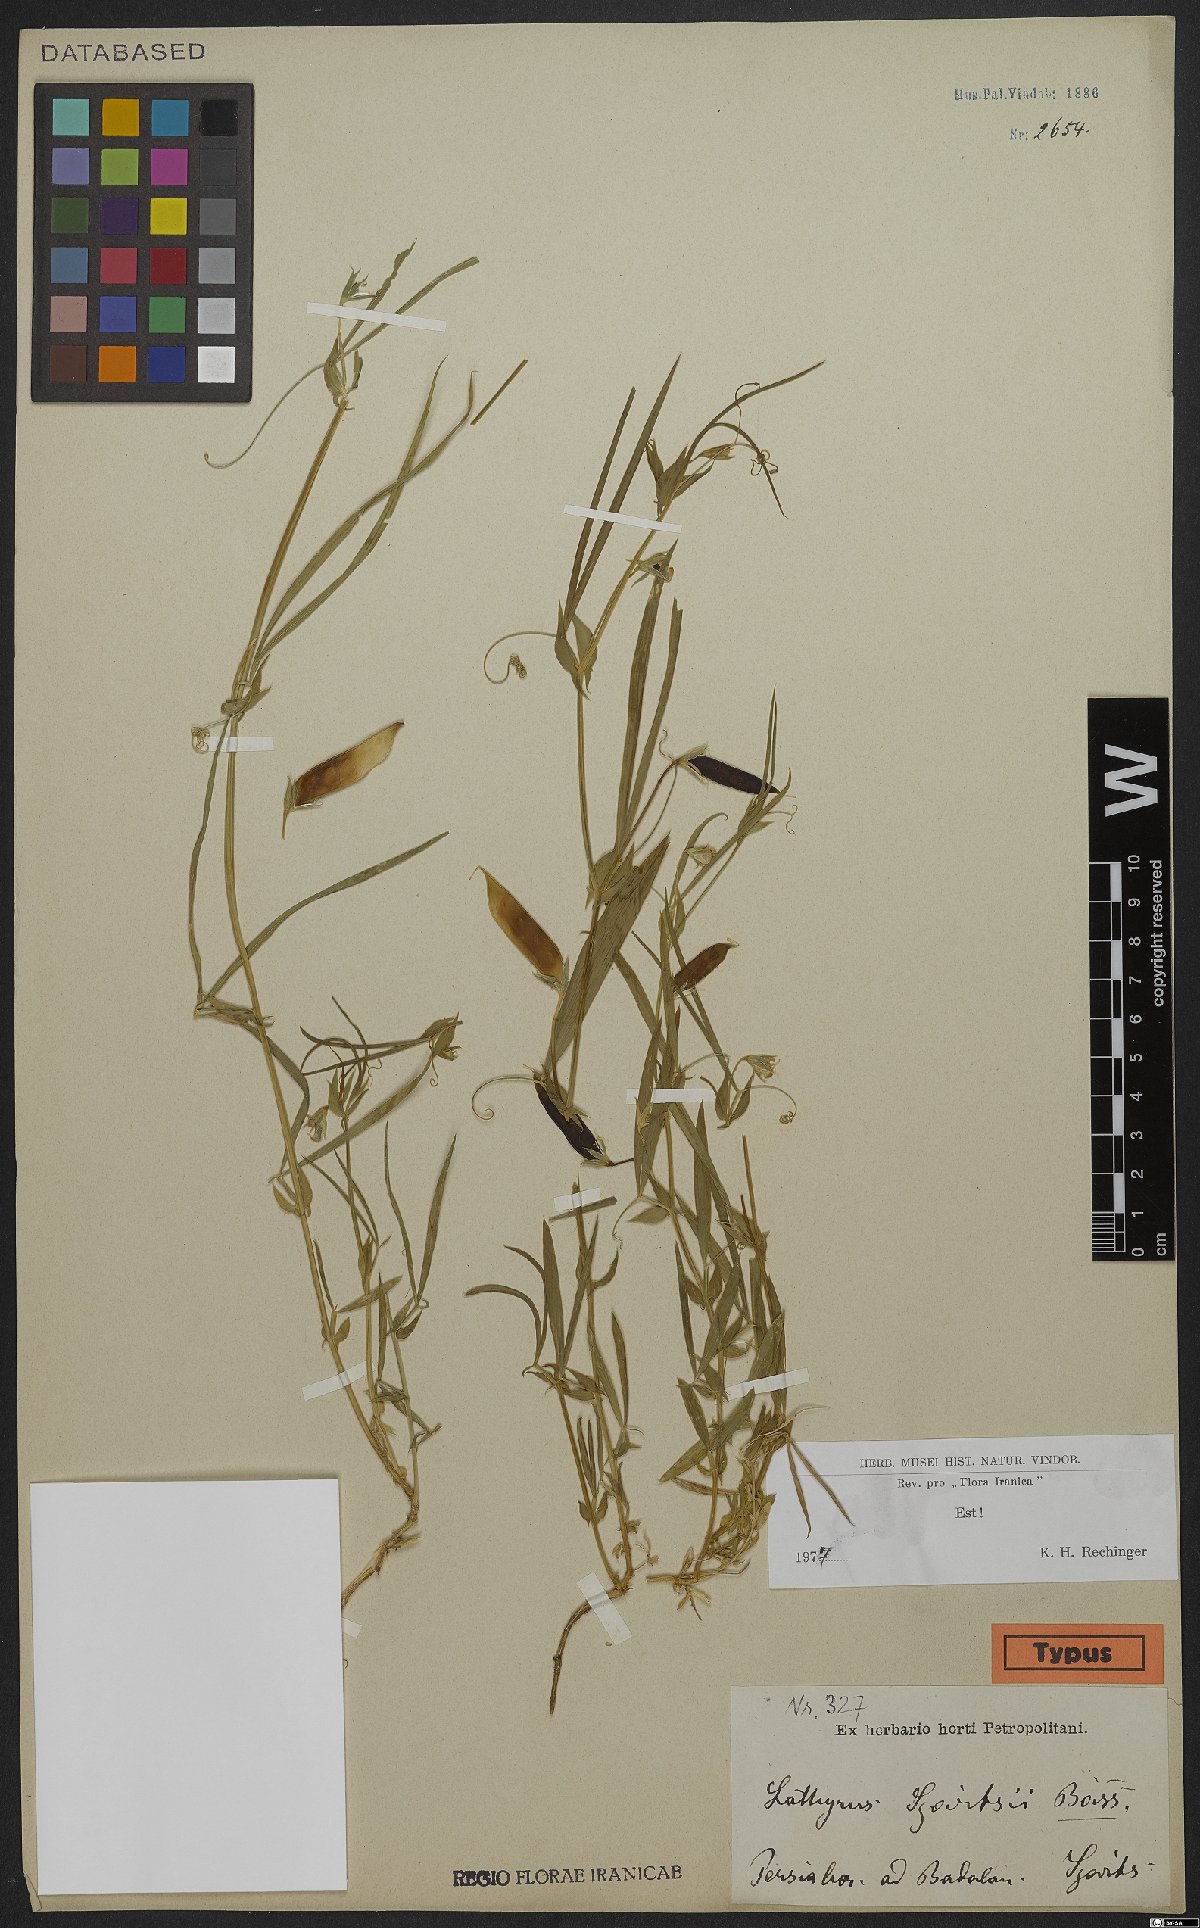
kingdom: Plantae
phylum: Tracheophyta
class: Magnoliopsida
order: Fabales
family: Fabaceae
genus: Lathyrus
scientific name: Lathyrus cicera
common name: Red vetchling
